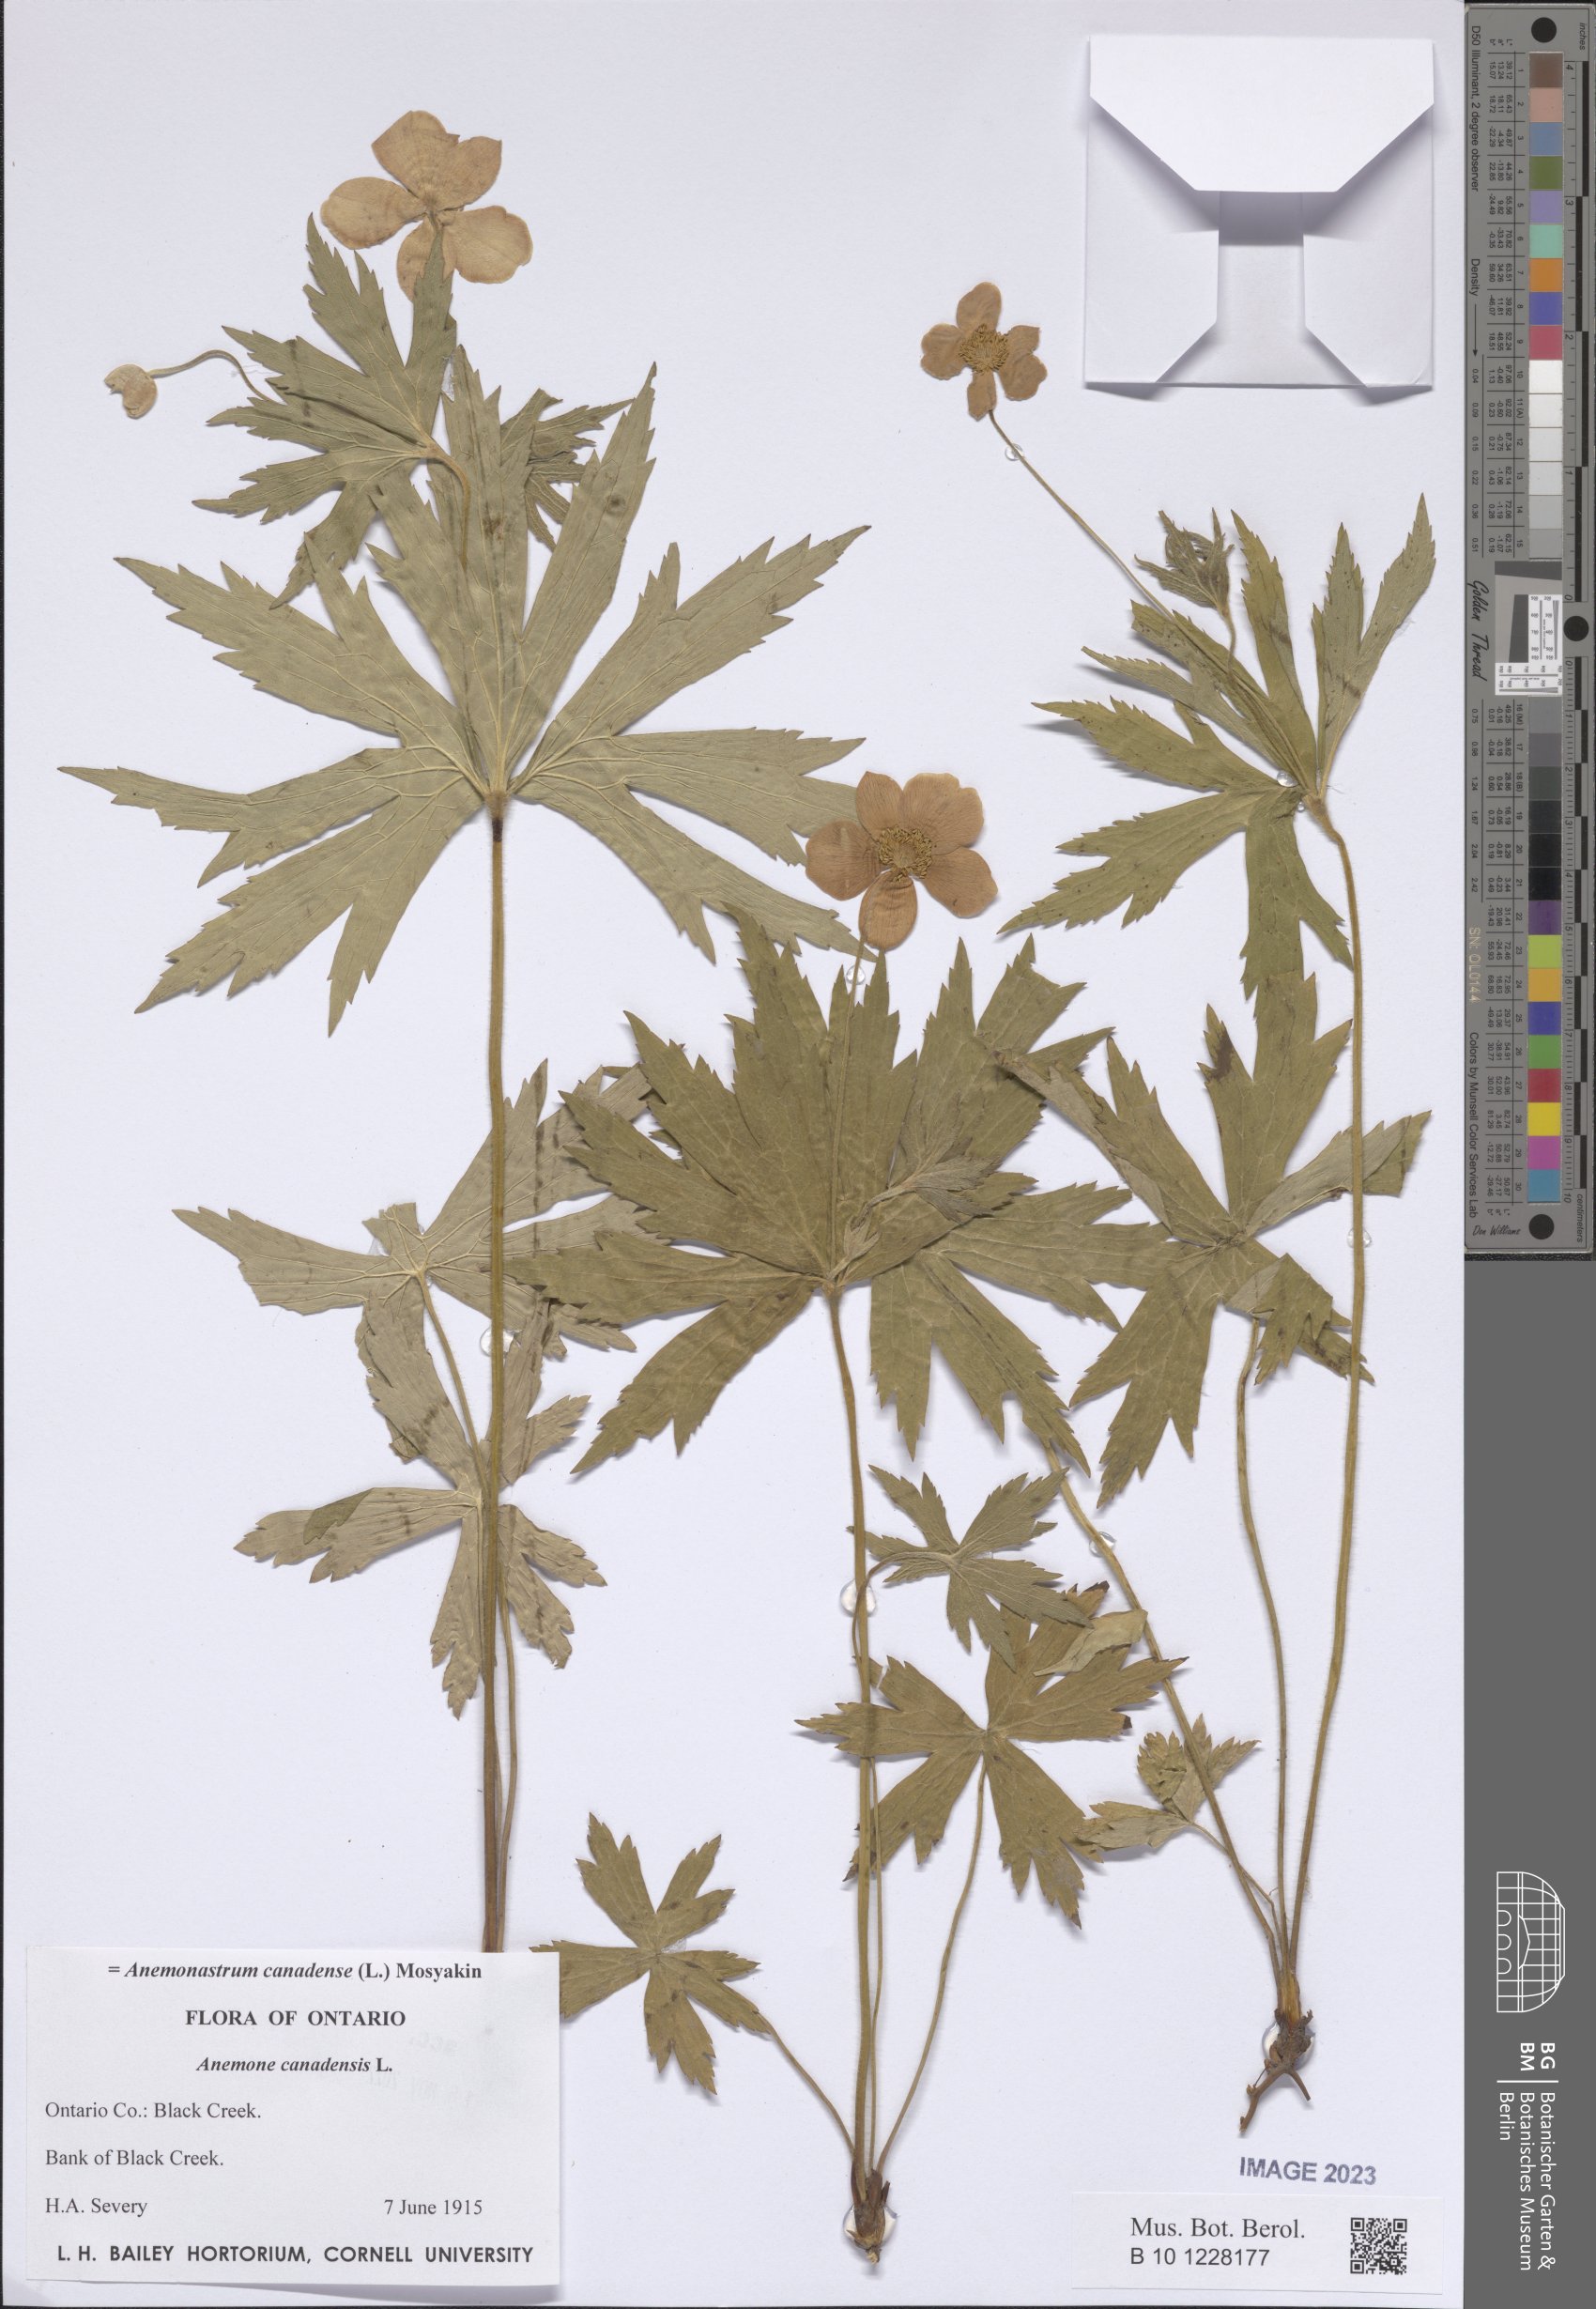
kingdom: Plantae
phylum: Tracheophyta
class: Magnoliopsida
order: Ranunculales
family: Ranunculaceae
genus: Anemonastrum
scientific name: Anemonastrum canadense
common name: Canada anemone
